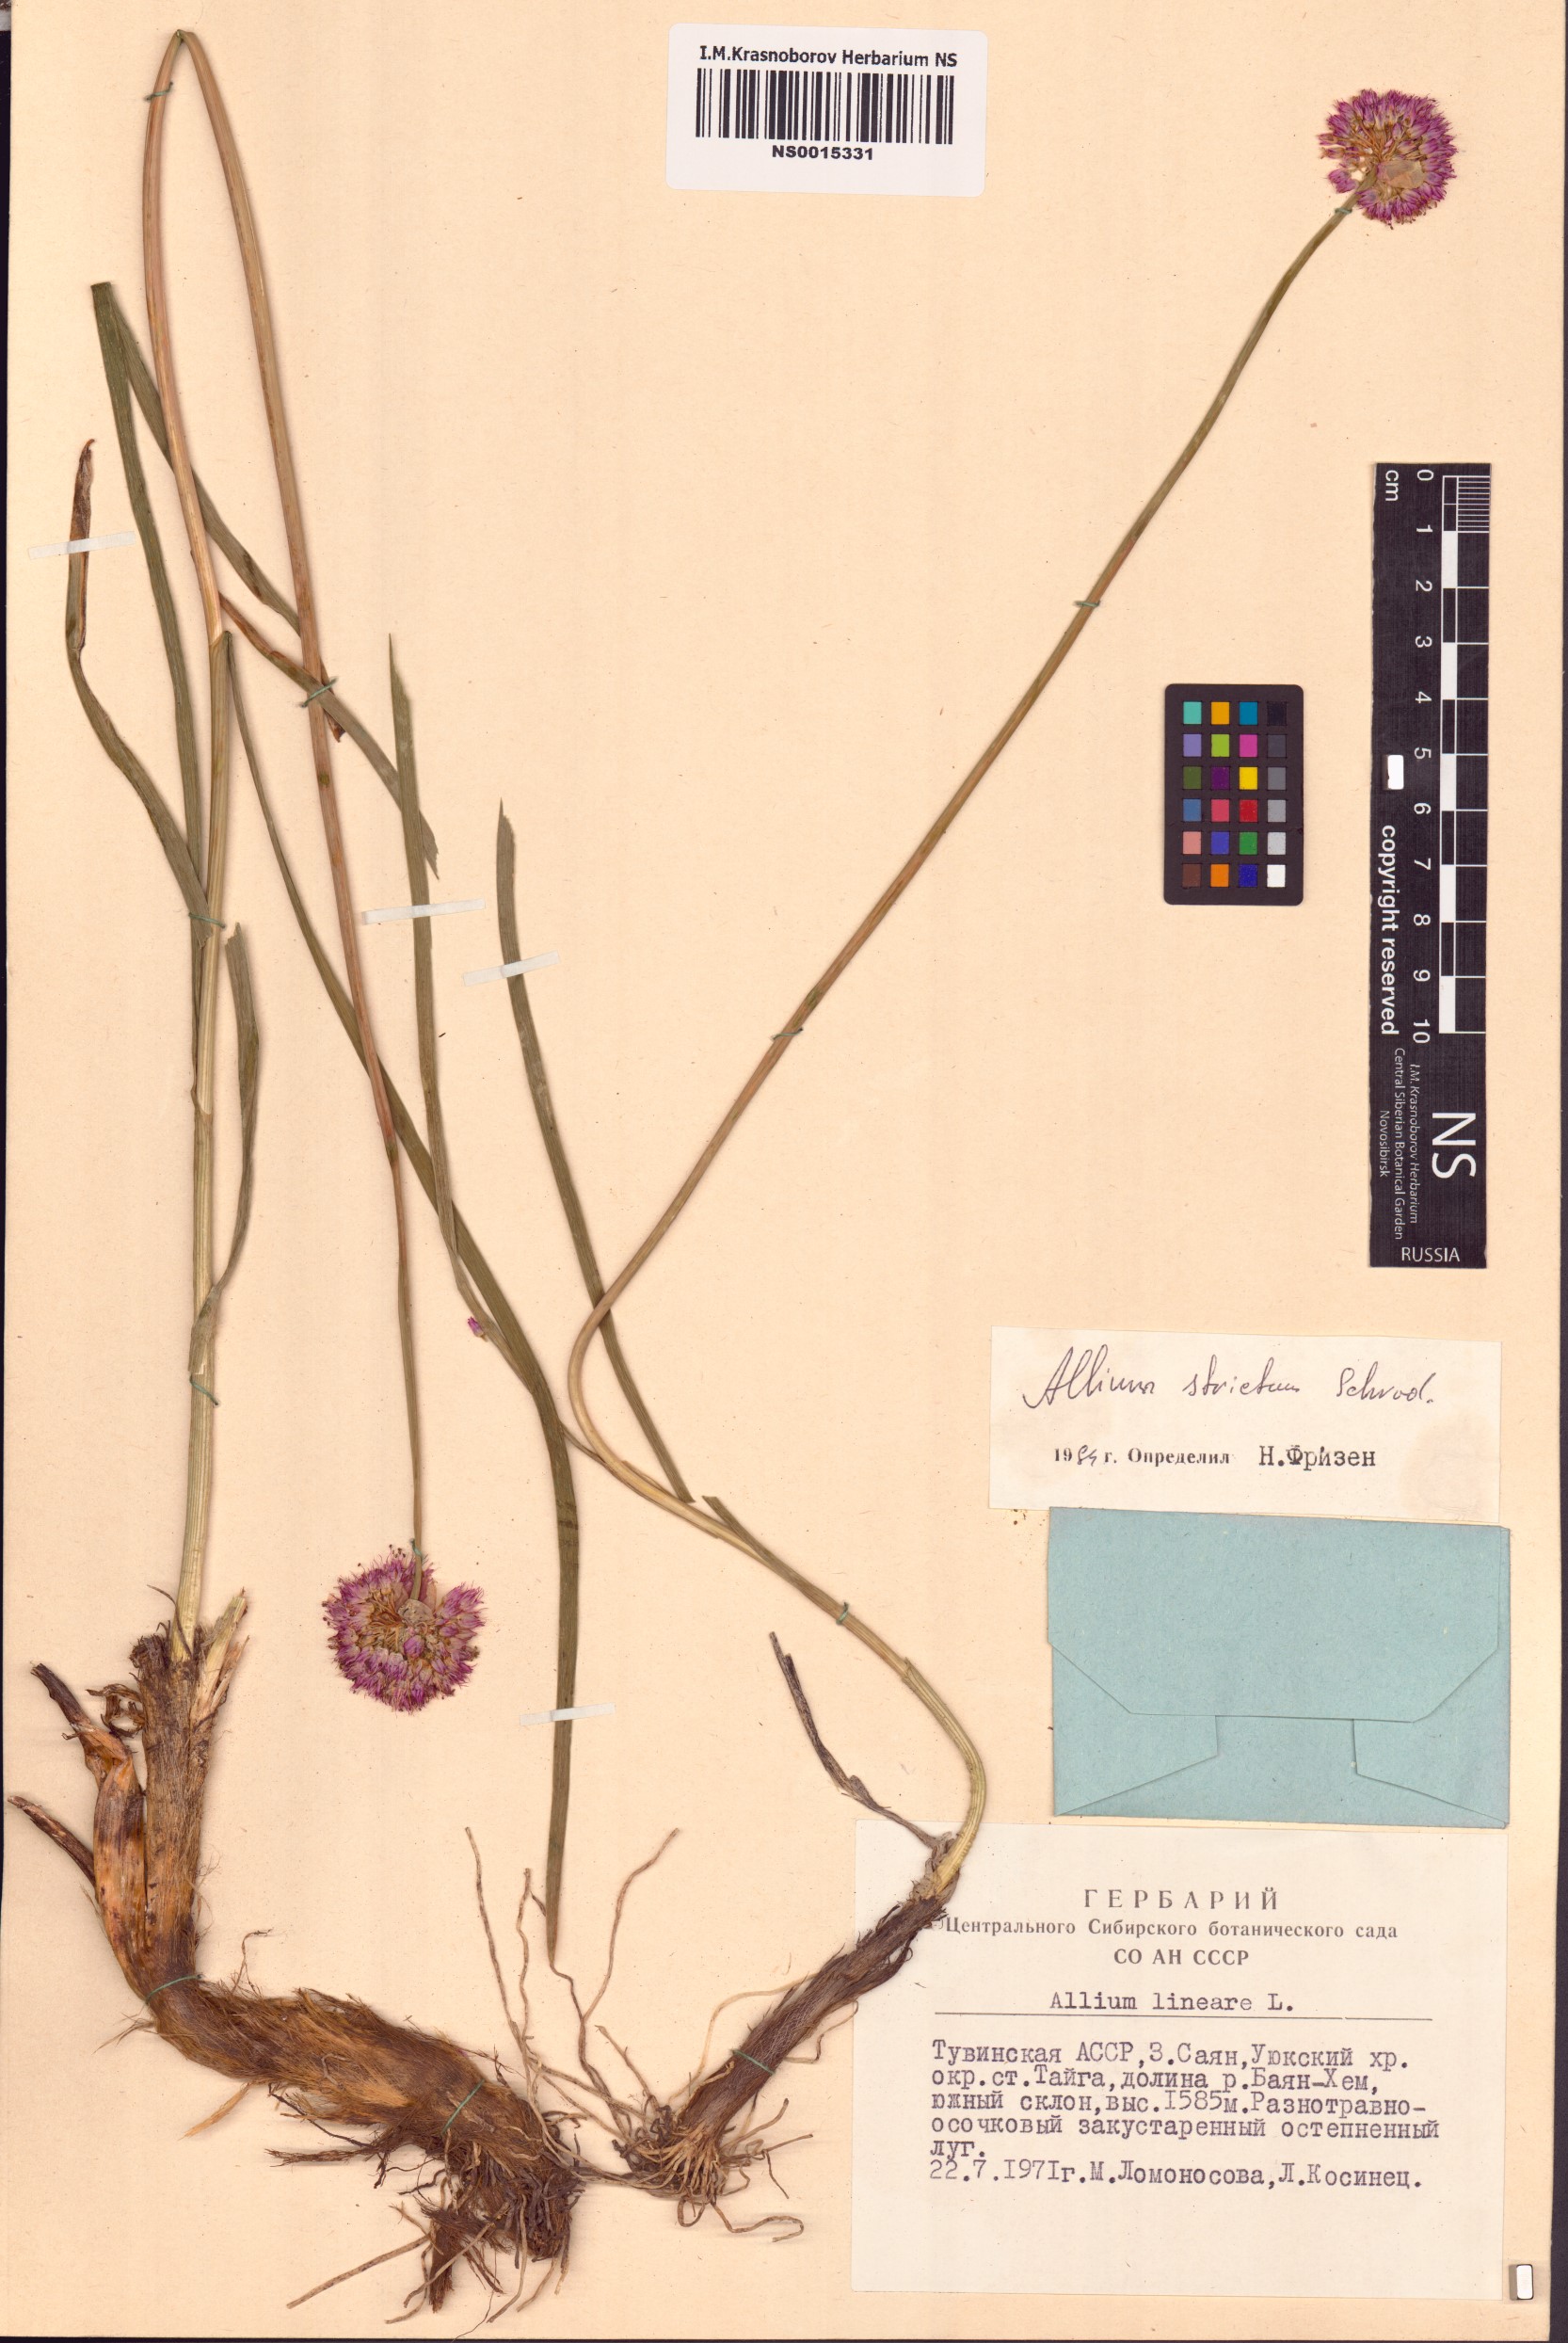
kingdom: Plantae
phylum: Tracheophyta
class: Liliopsida
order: Asparagales
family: Amaryllidaceae
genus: Allium
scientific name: Allium strictum
